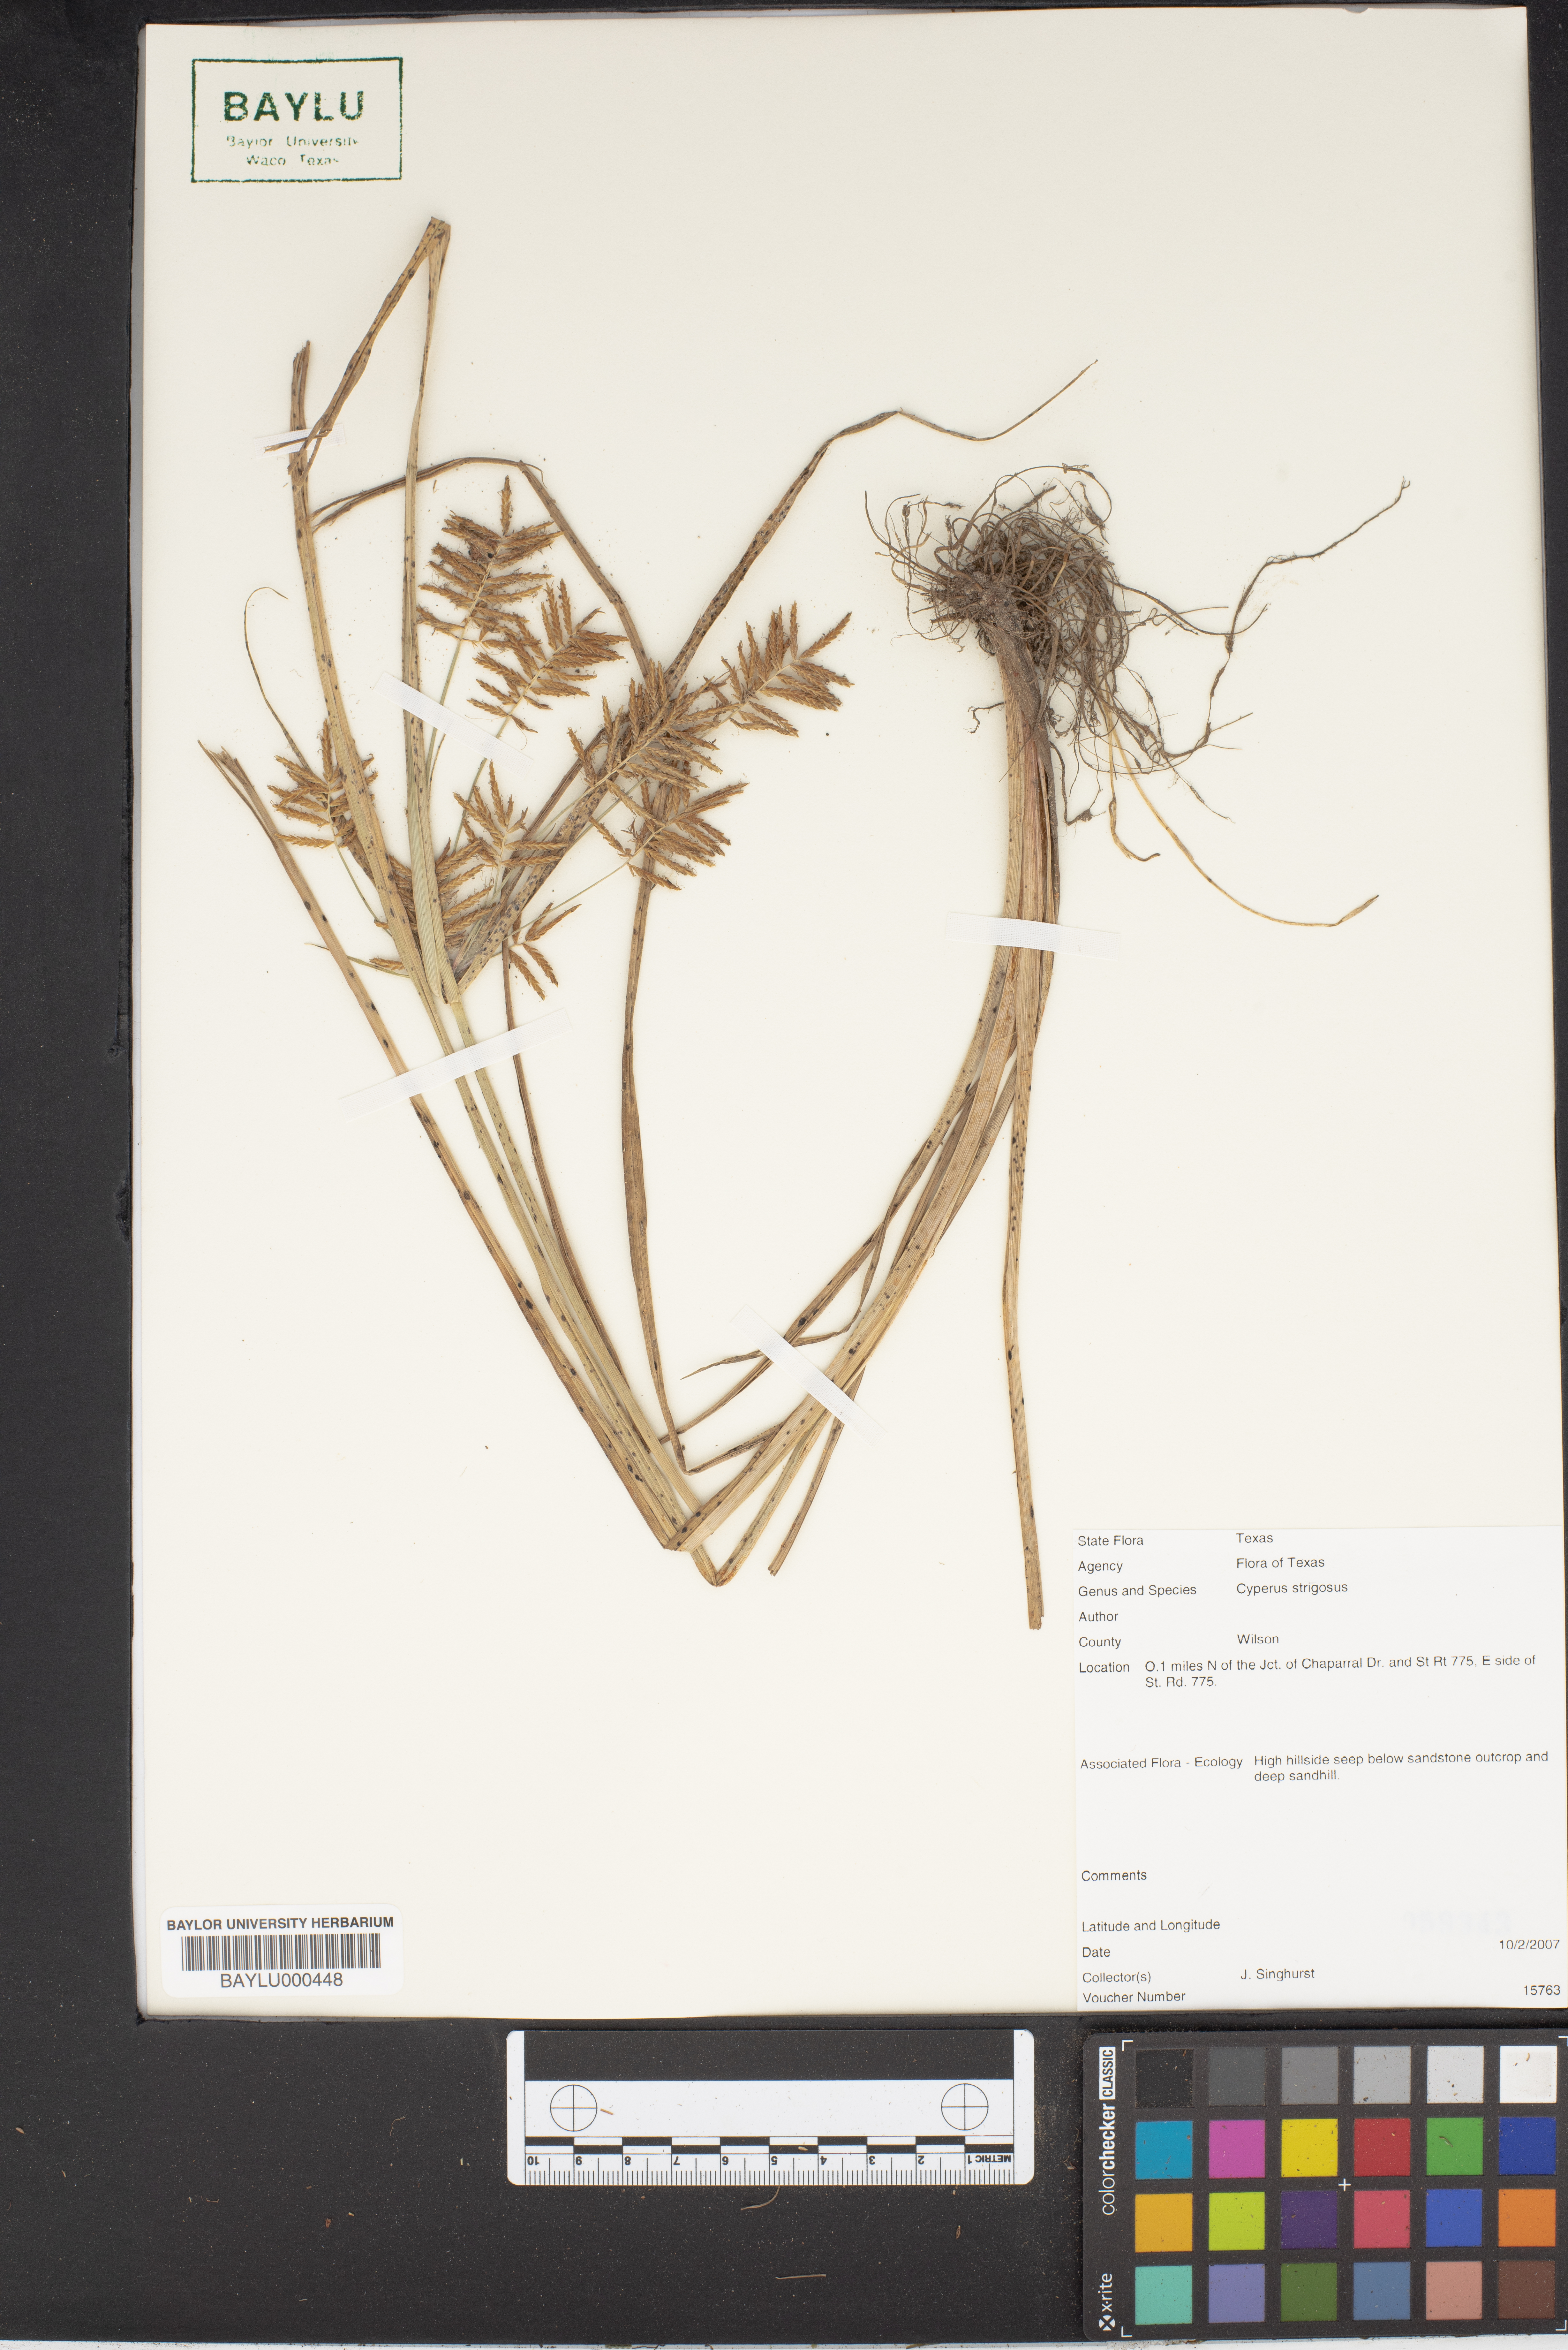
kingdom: Plantae
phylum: Tracheophyta
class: Liliopsida
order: Poales
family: Cyperaceae
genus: Cyperus
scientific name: Cyperus strigosus
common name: False nutsedge
